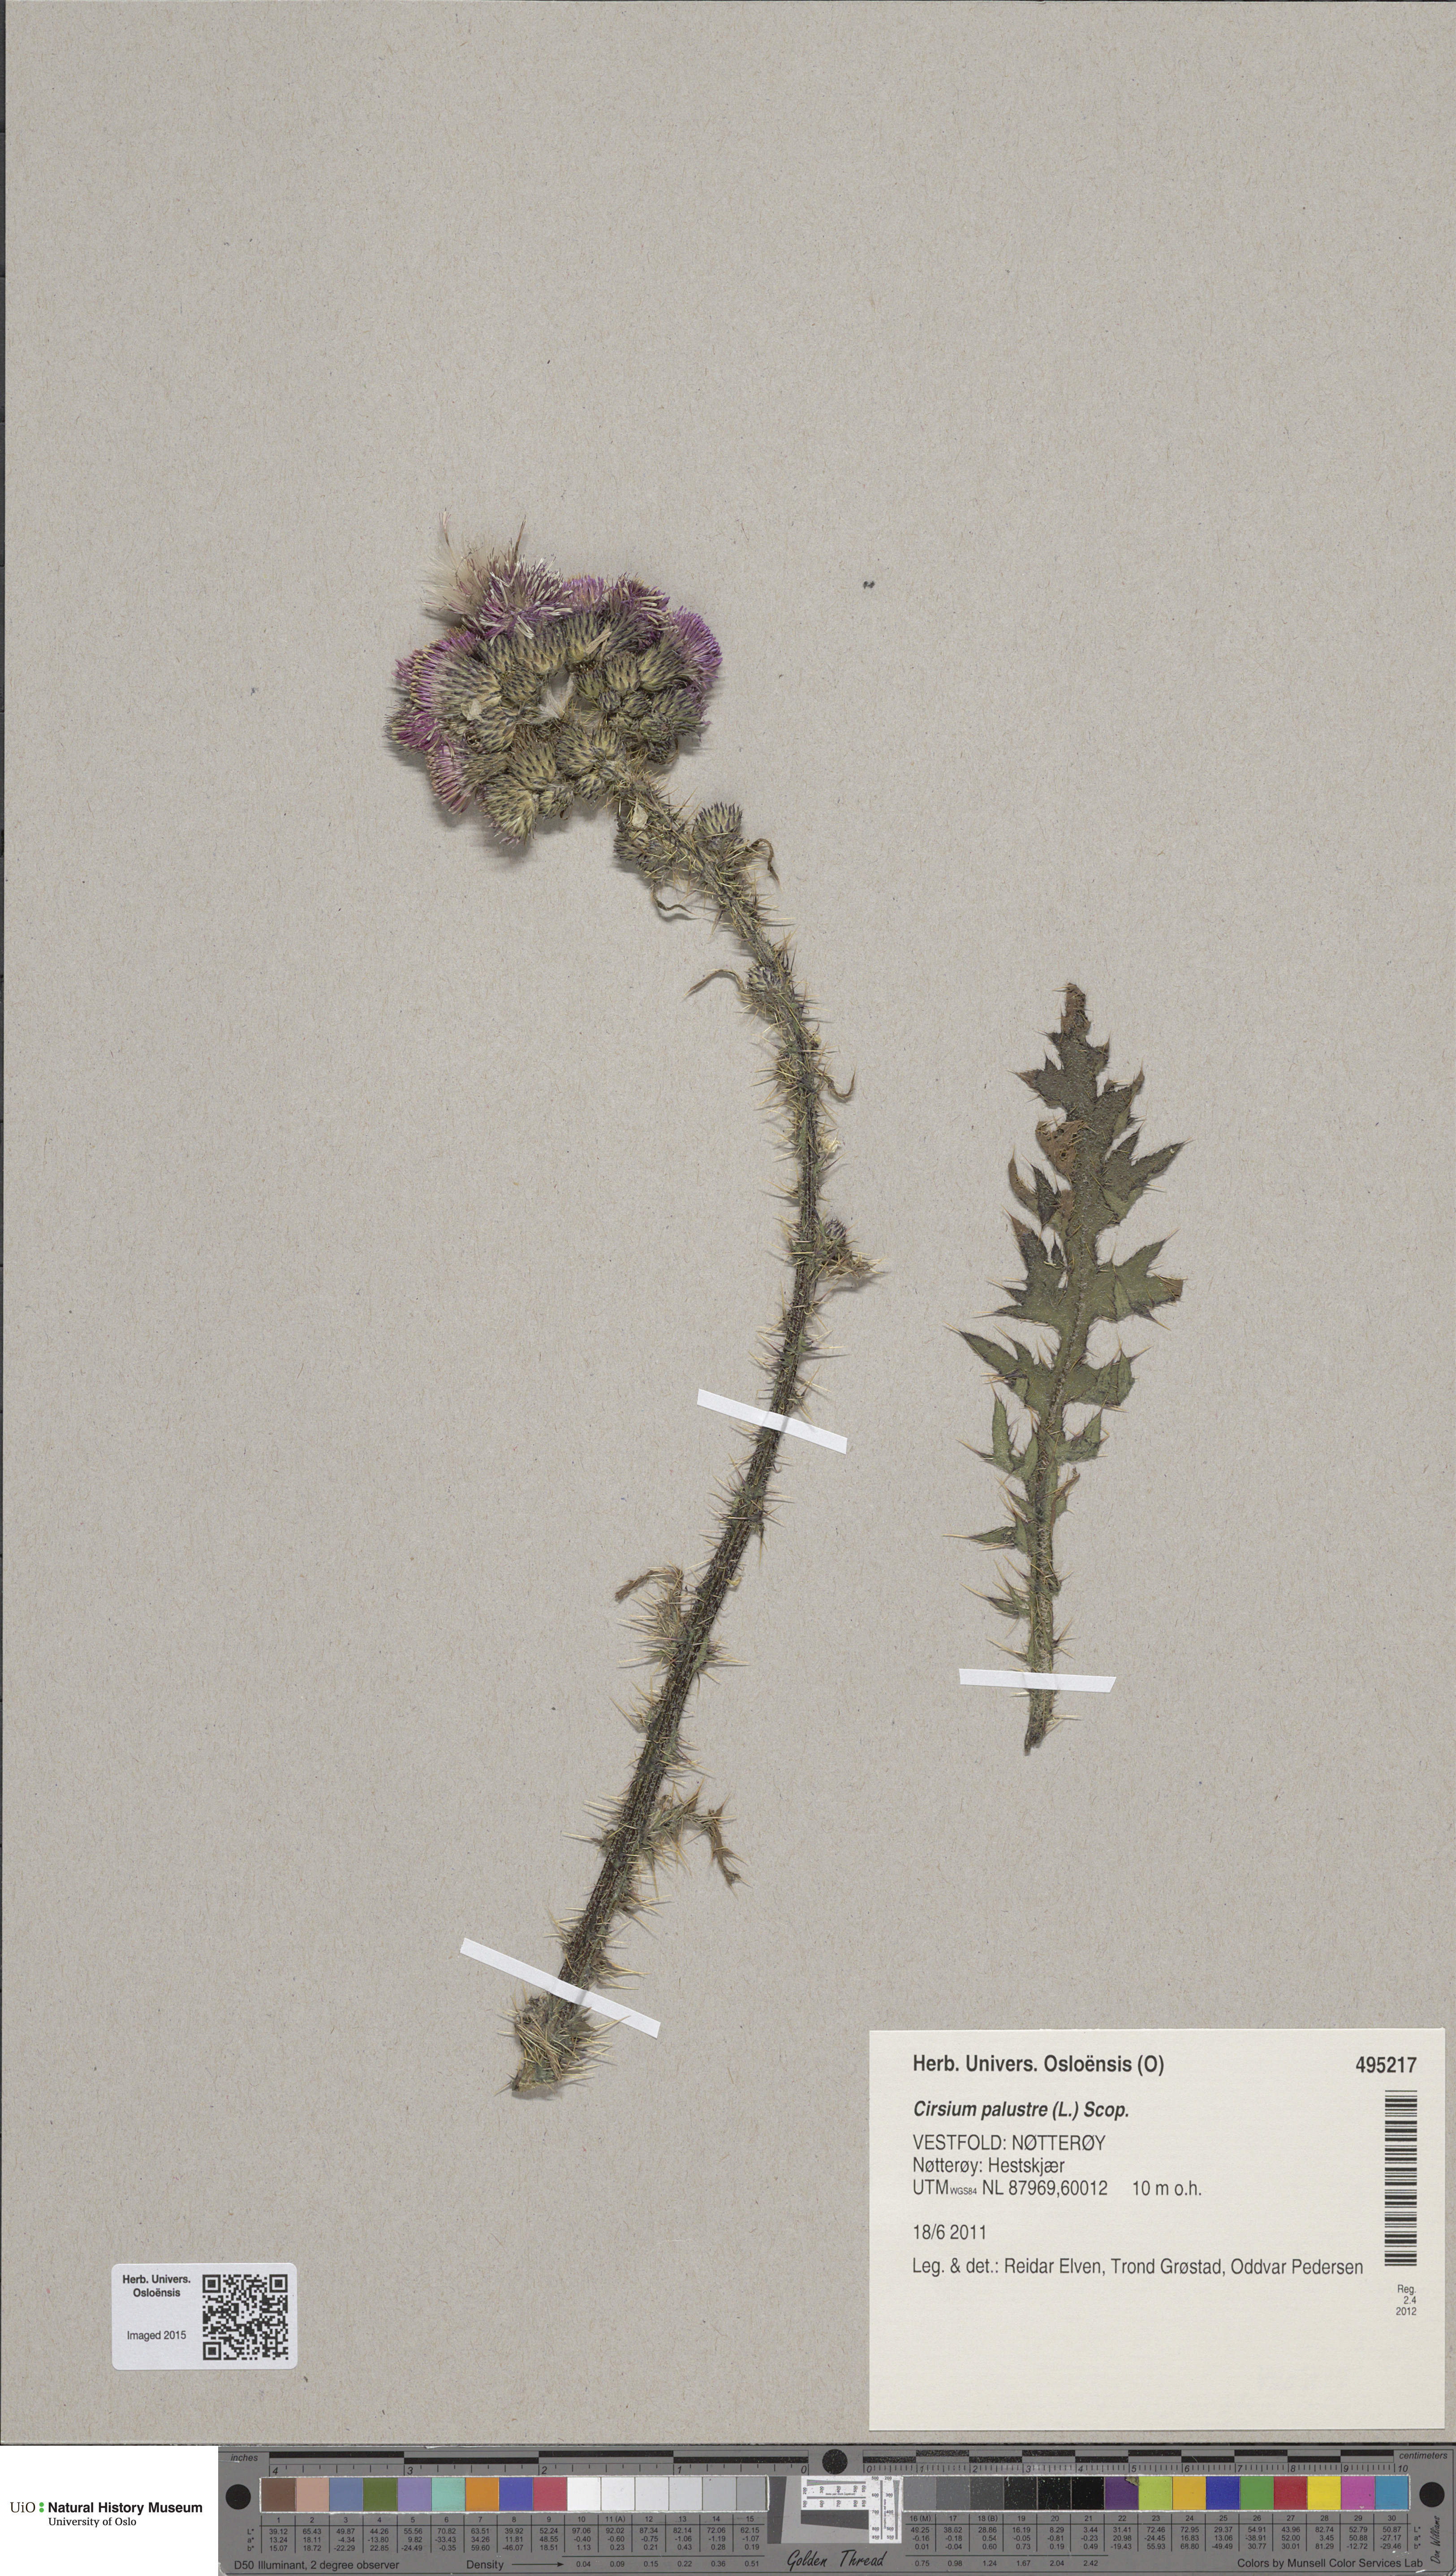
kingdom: Plantae
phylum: Tracheophyta
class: Magnoliopsida
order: Asterales
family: Asteraceae
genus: Cirsium
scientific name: Cirsium palustre
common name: Marsh thistle
